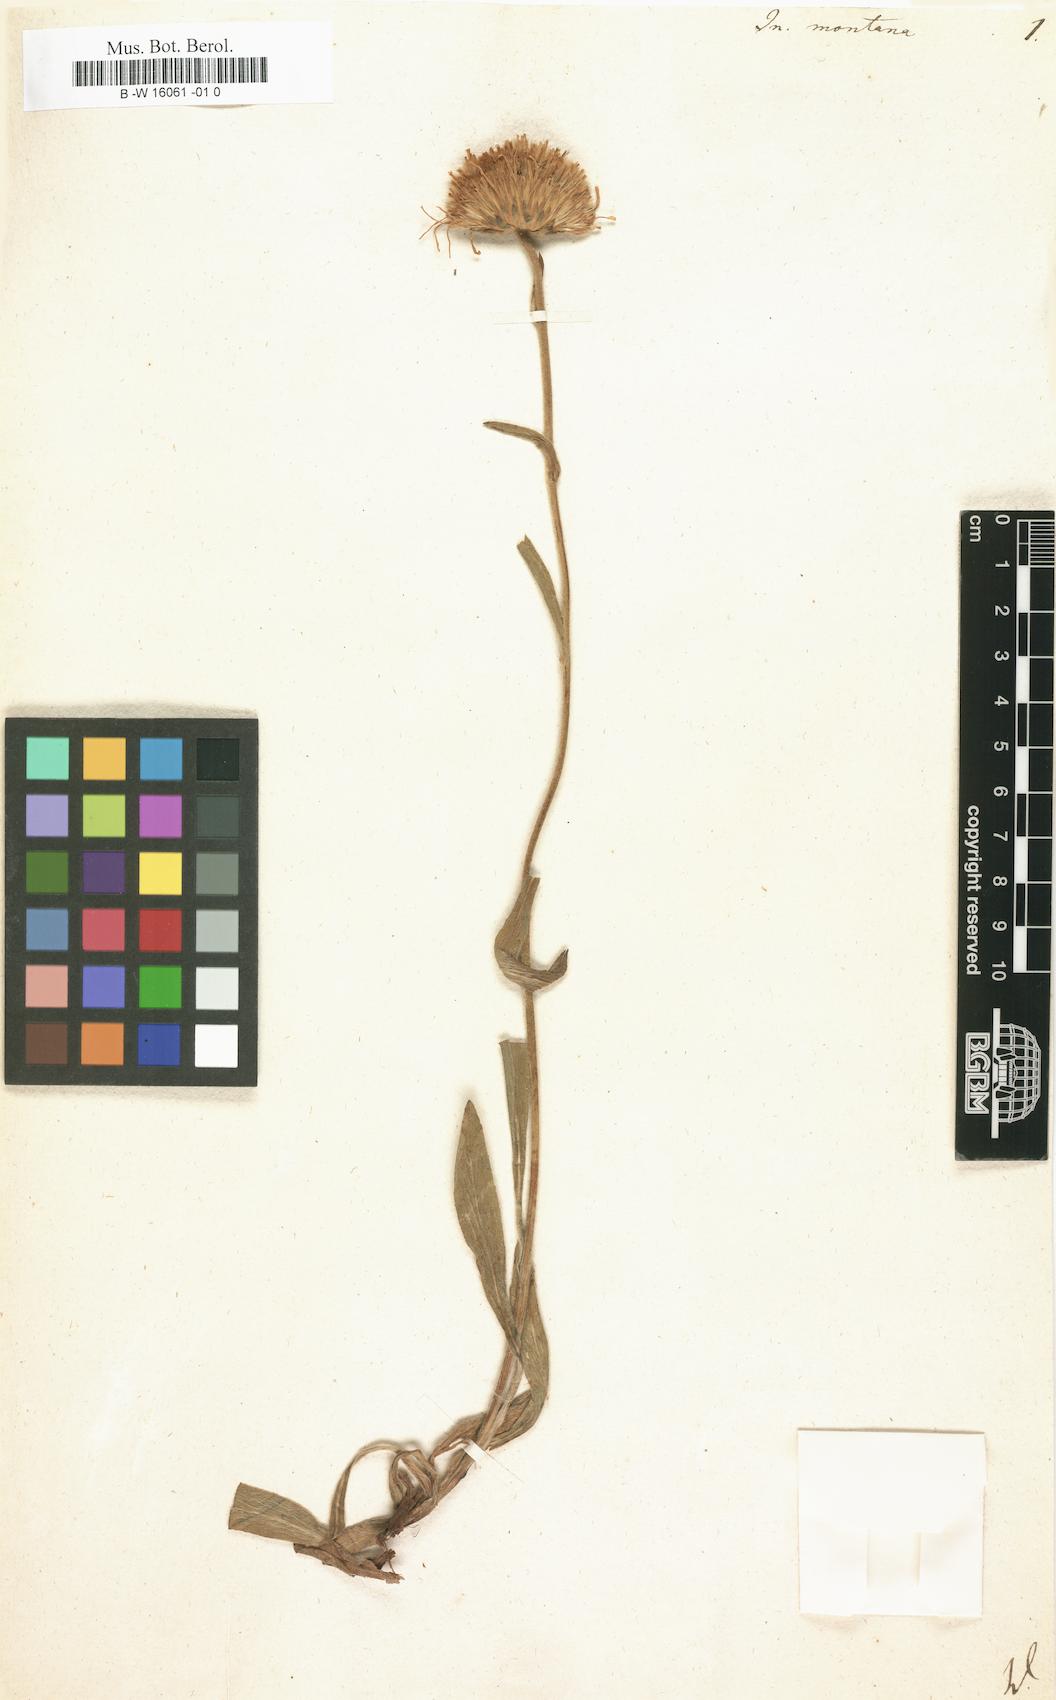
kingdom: Plantae
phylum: Tracheophyta
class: Magnoliopsida
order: Asterales
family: Asteraceae
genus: Inula
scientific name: Inula montana
